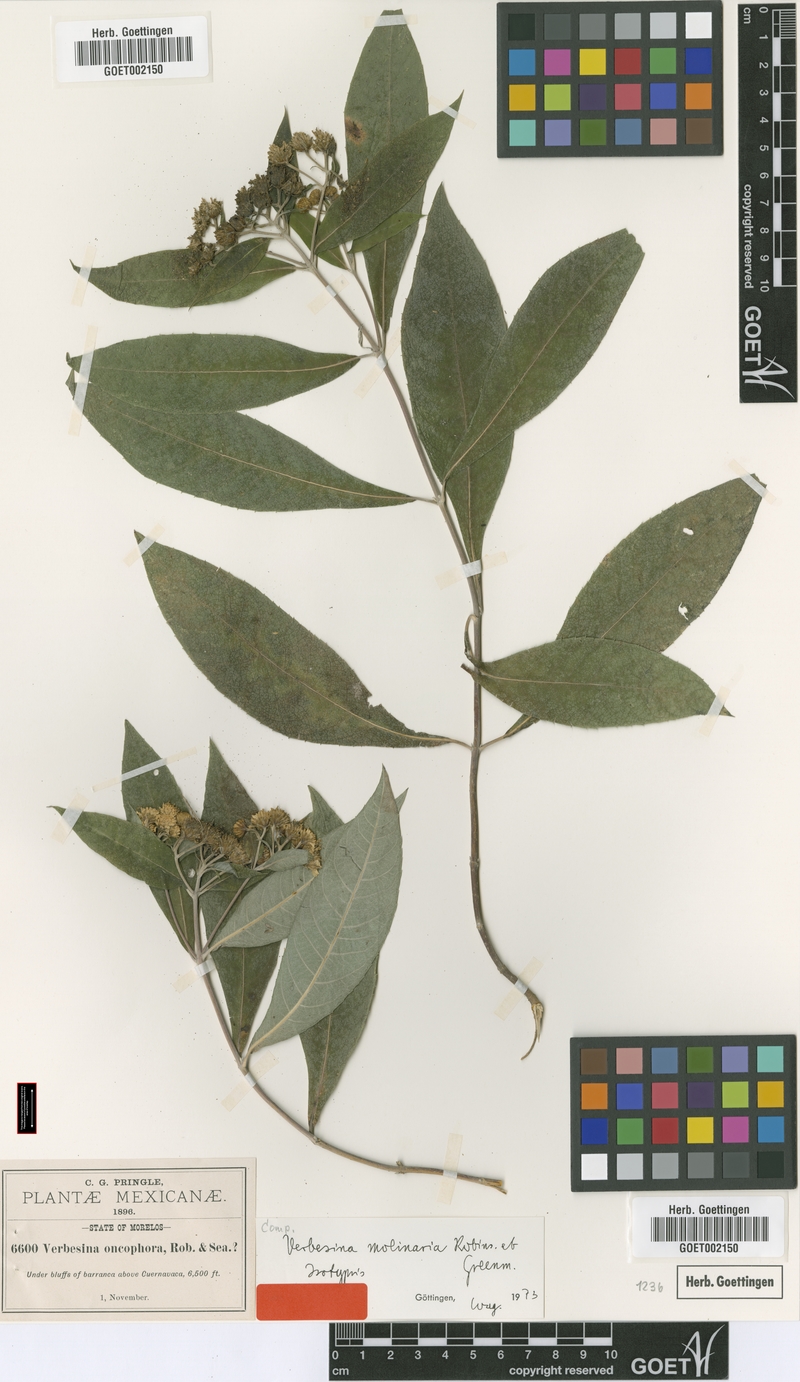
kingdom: Plantae
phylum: Tracheophyta
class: Magnoliopsida
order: Asterales
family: Asteraceae
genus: Verbesina
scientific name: Verbesina oncophora
